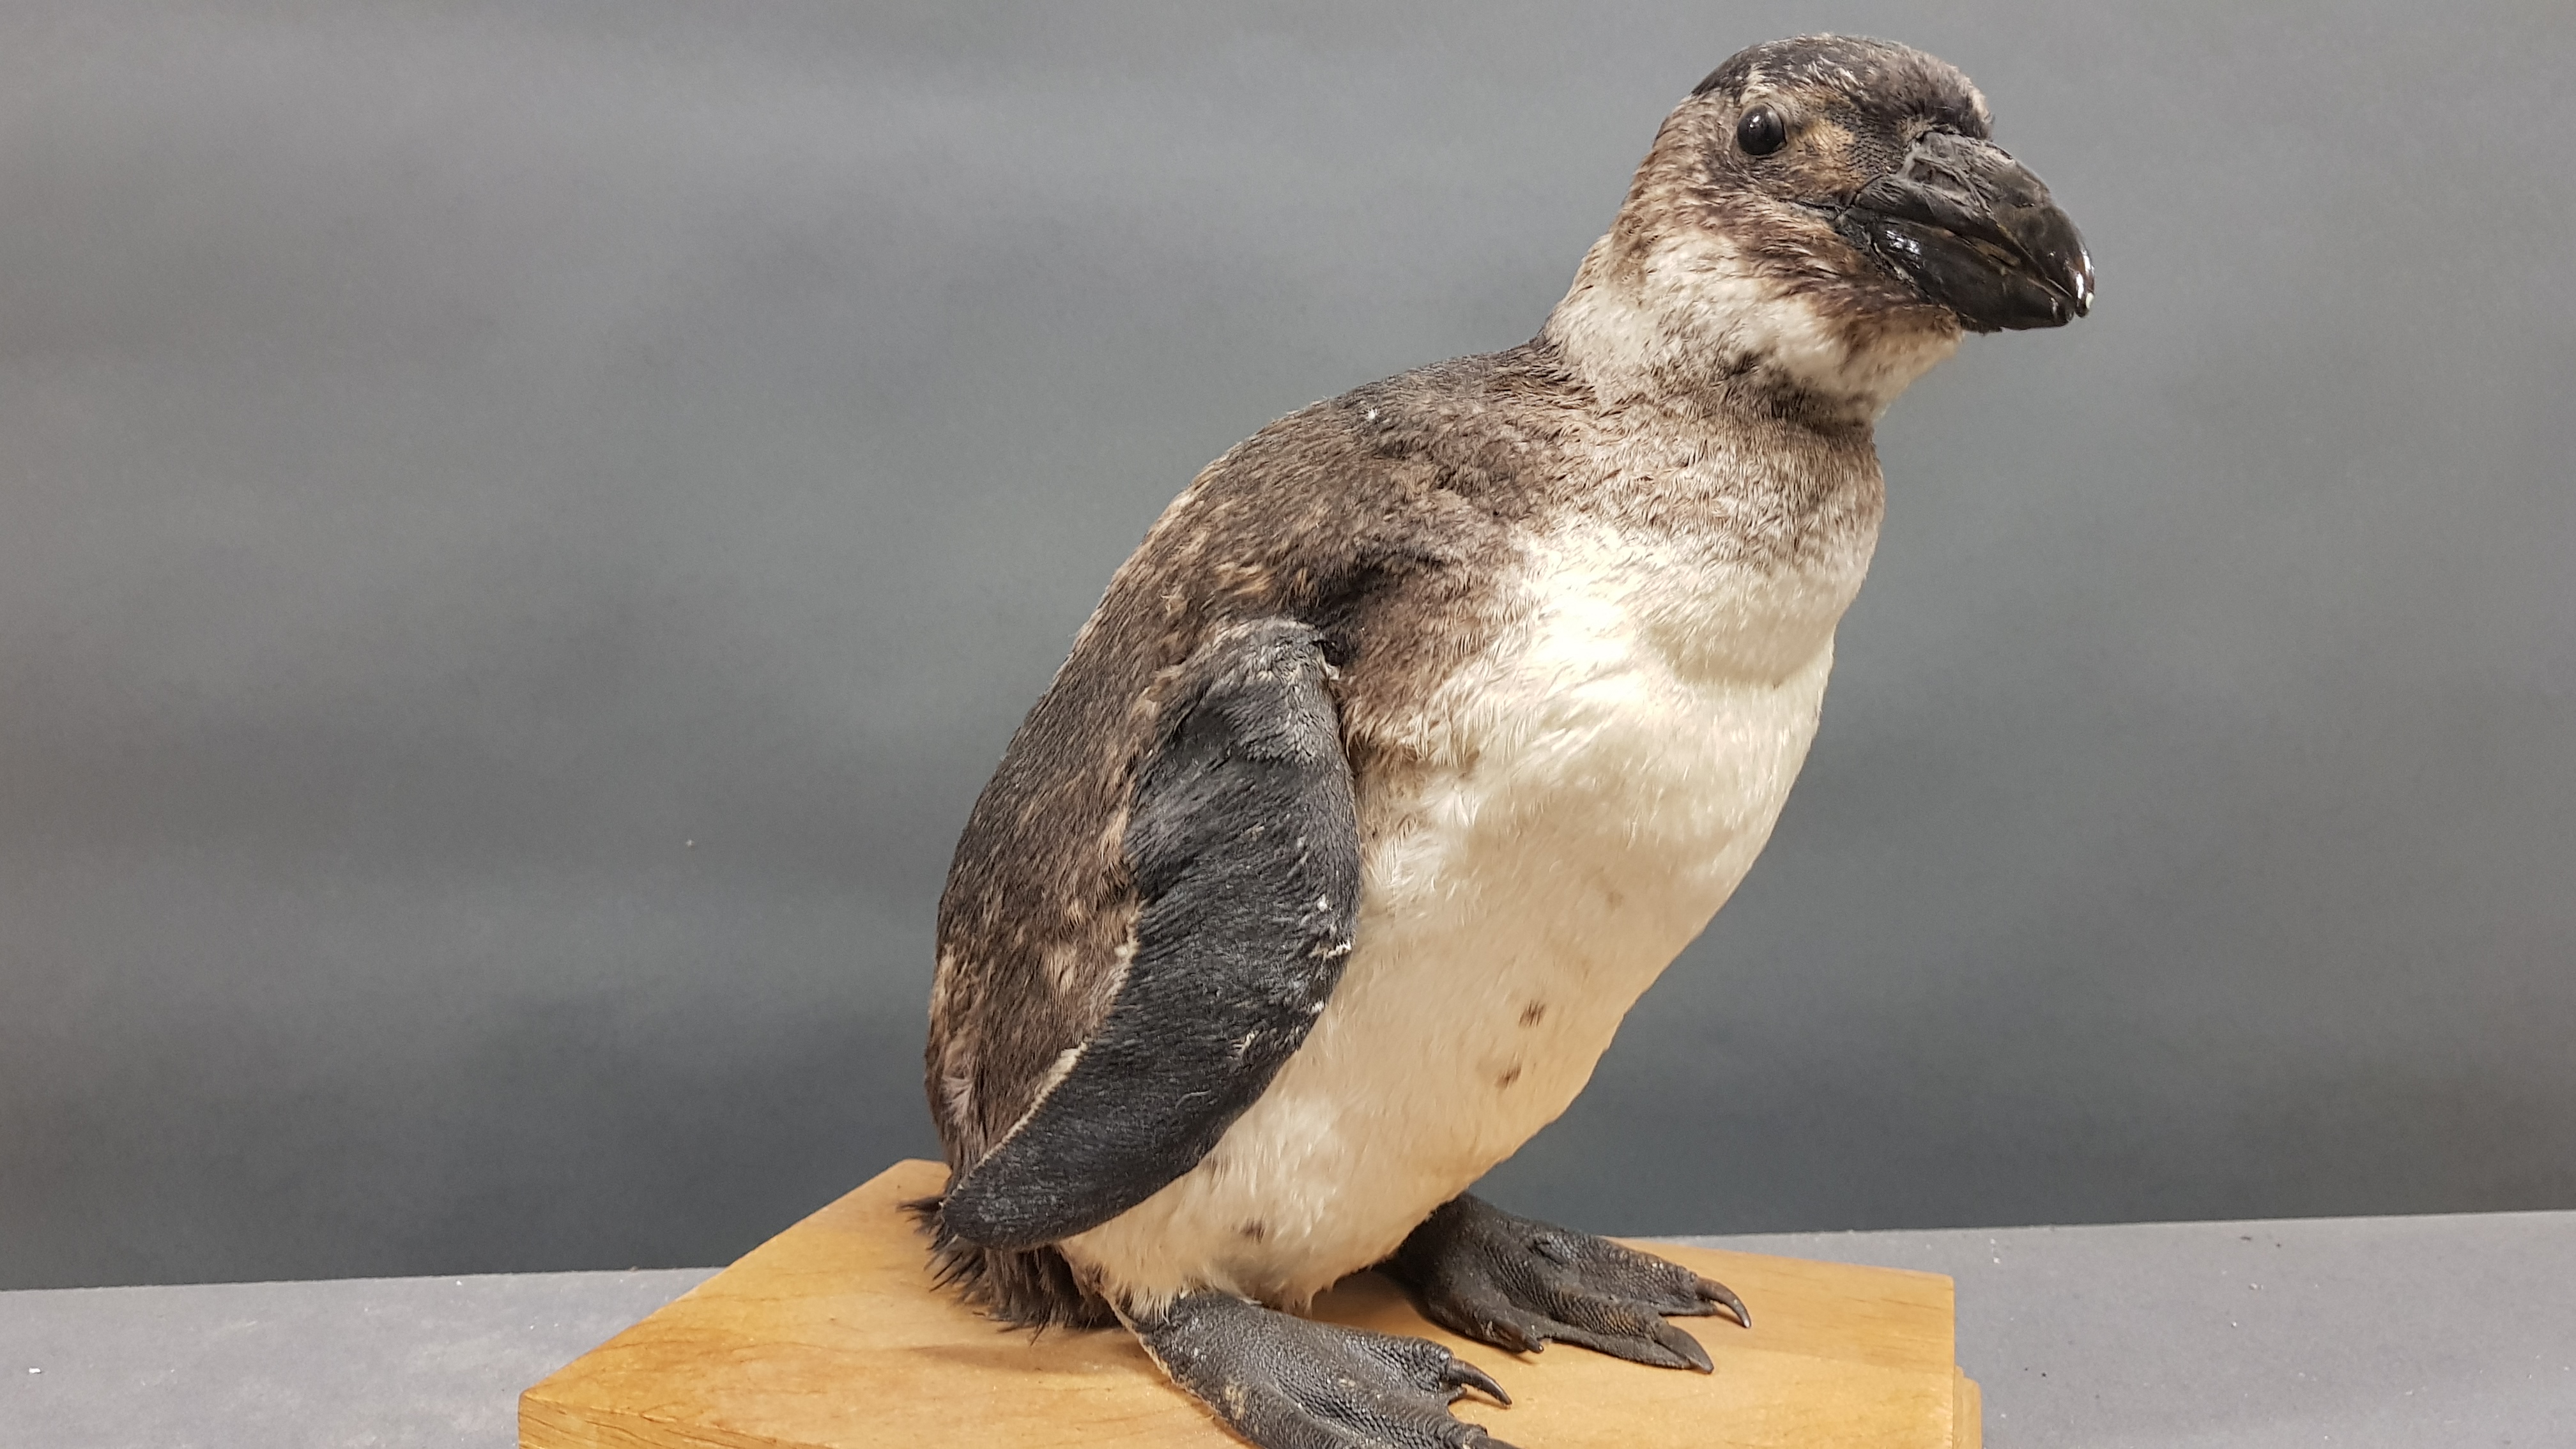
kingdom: Animalia
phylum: Chordata
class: Aves
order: Sphenisciformes
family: Spheniscidae
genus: Spheniscus
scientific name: Spheniscus demersus
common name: African penguin
